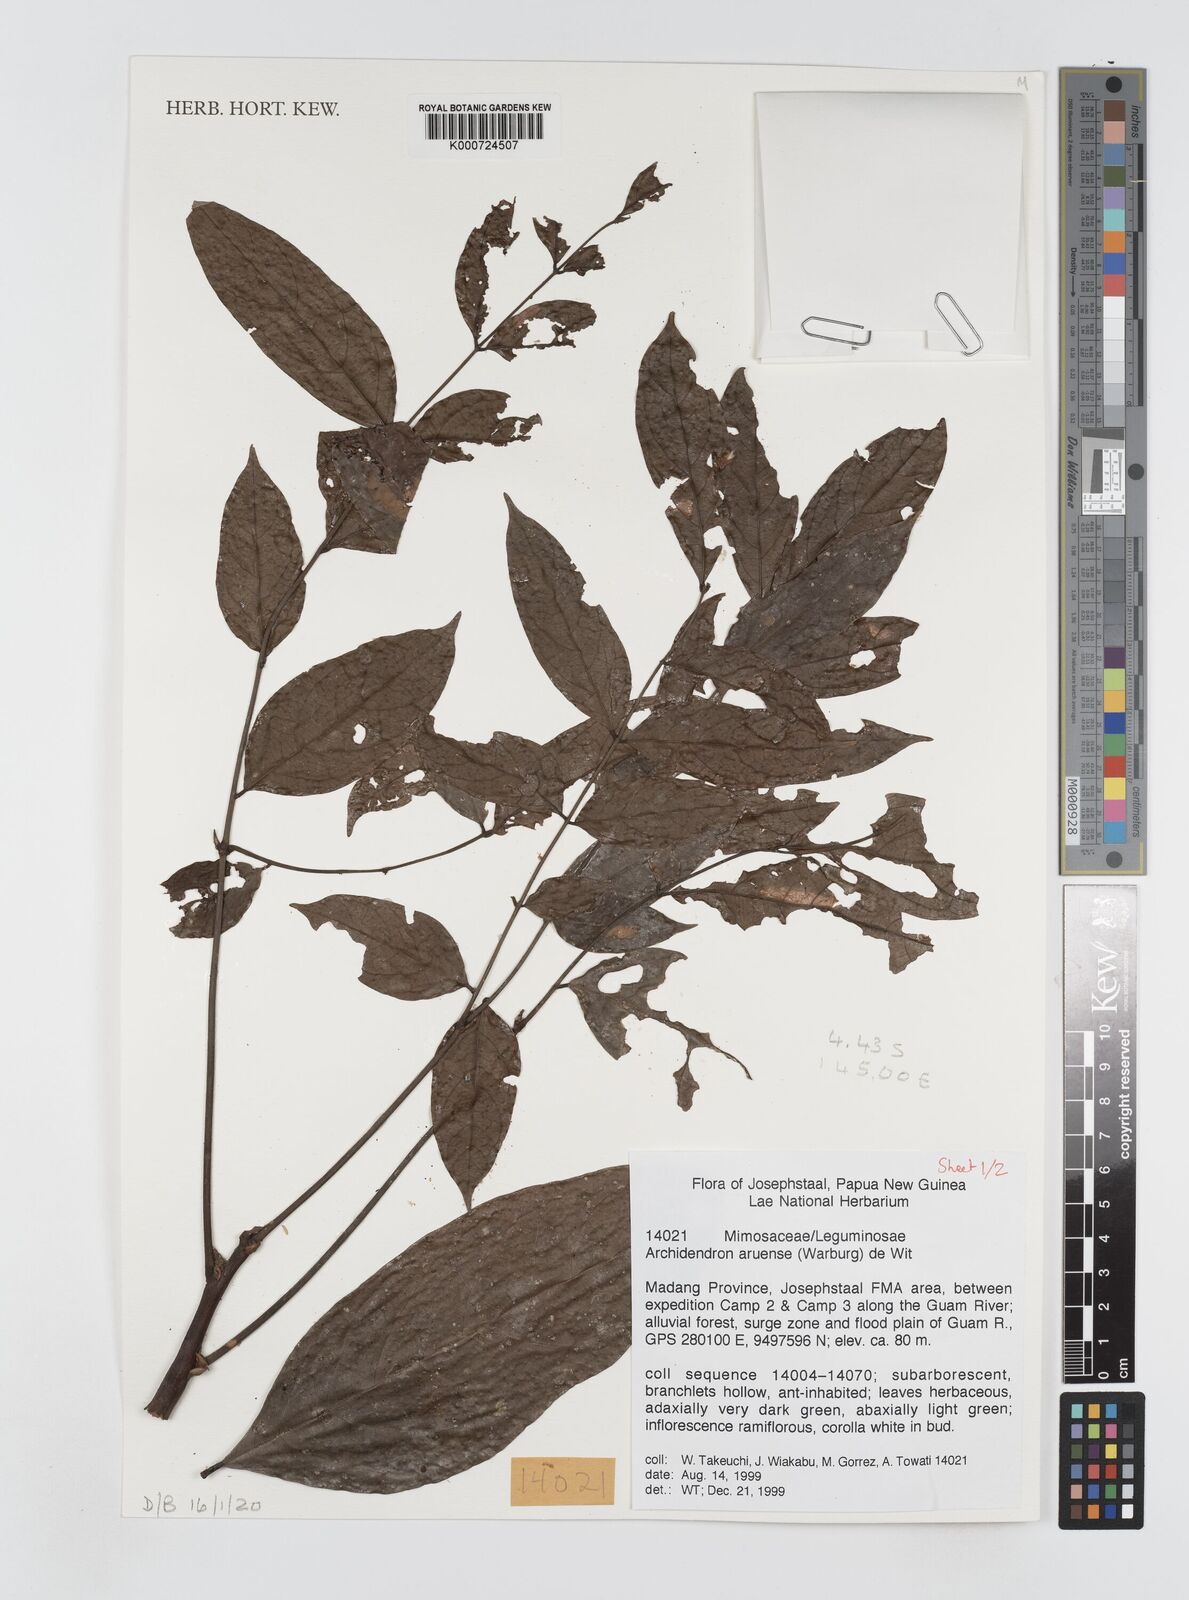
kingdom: Plantae
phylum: Tracheophyta
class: Magnoliopsida
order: Fabales
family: Fabaceae
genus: Archidendron
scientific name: Archidendron aruense
